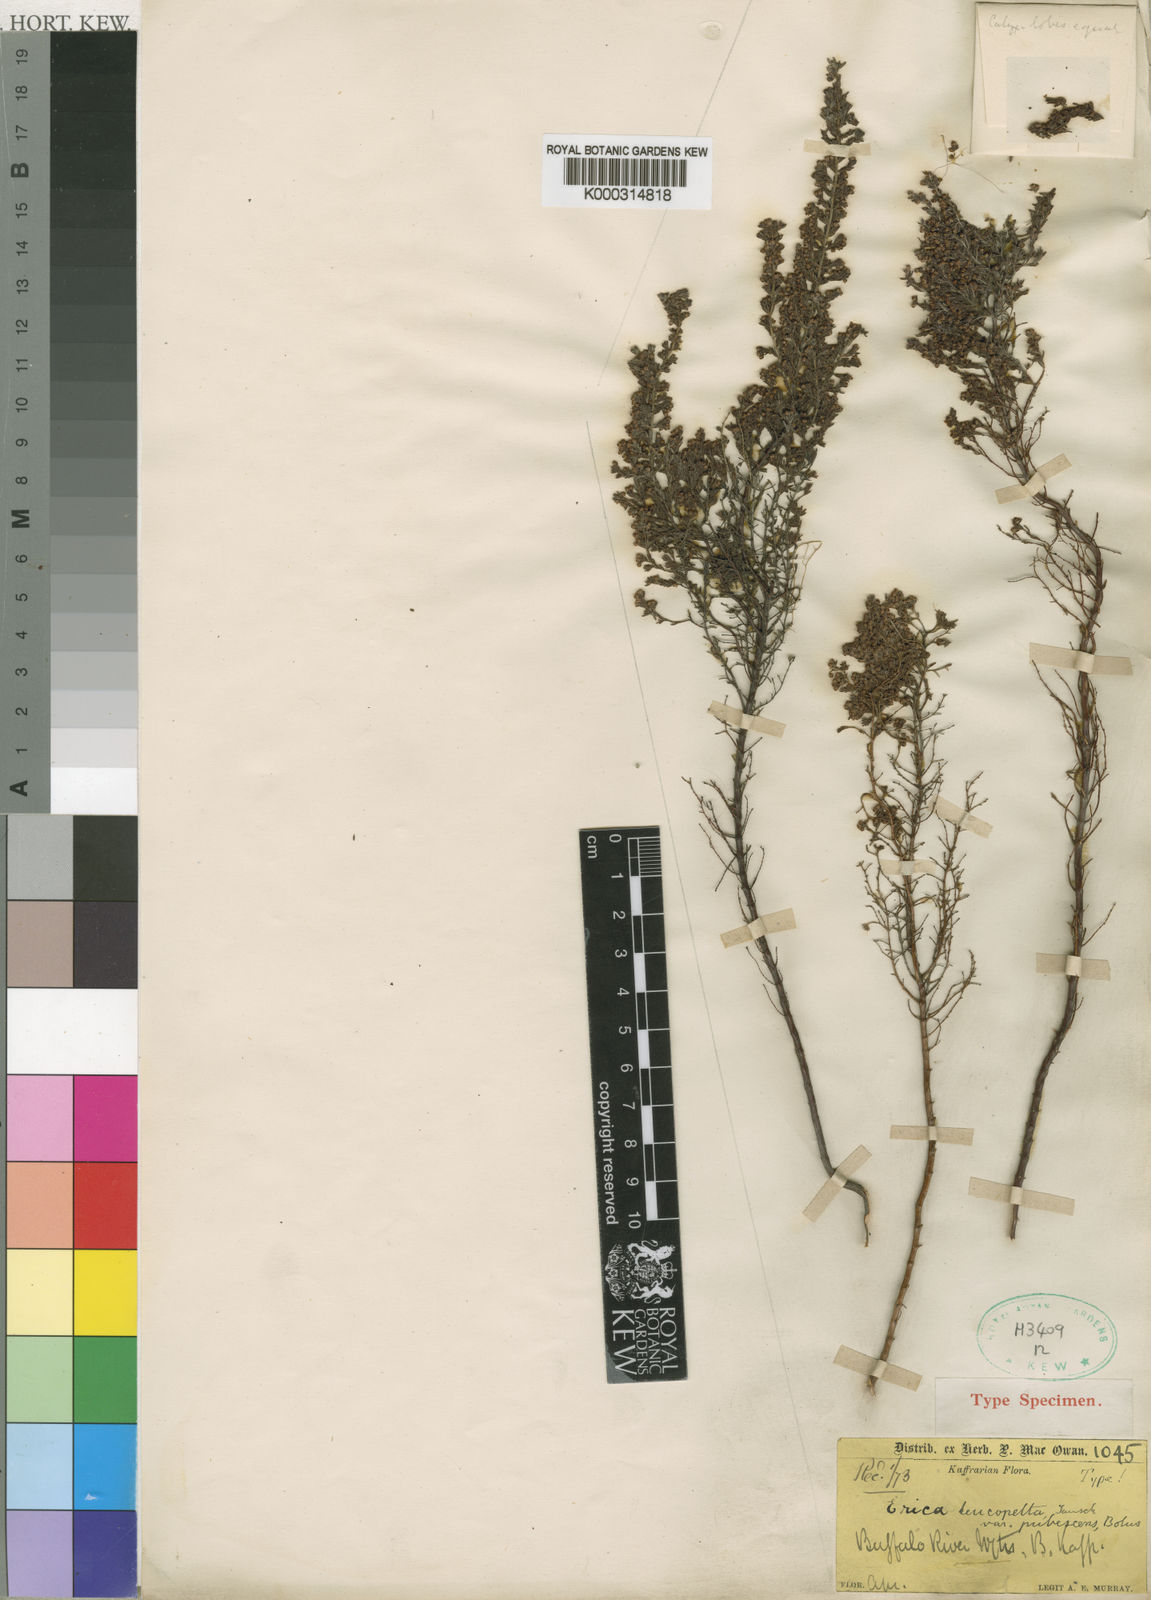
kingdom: Plantae
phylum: Tracheophyta
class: Magnoliopsida
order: Ericales
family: Ericaceae
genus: Erica
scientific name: Erica leucopelta
